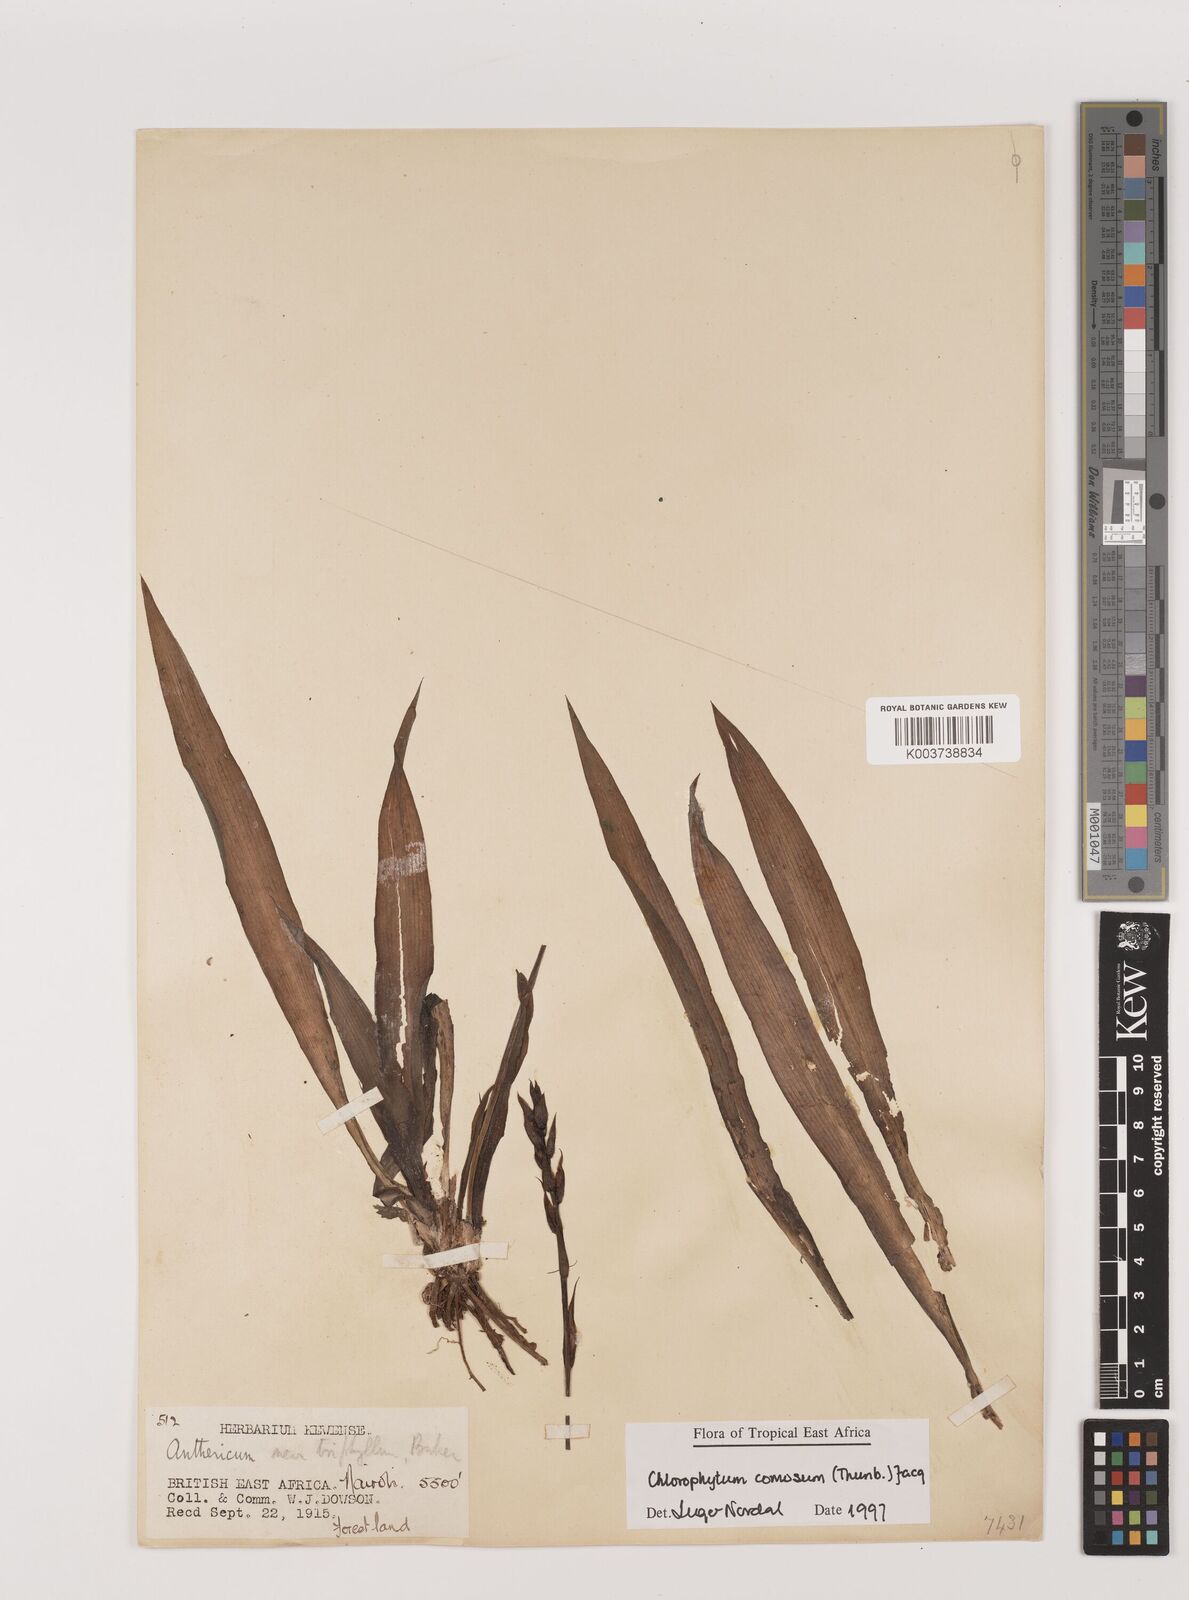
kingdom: Plantae
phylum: Tracheophyta
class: Liliopsida
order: Asparagales
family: Asparagaceae
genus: Chlorophytum
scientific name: Chlorophytum comosum
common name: Spider plant
